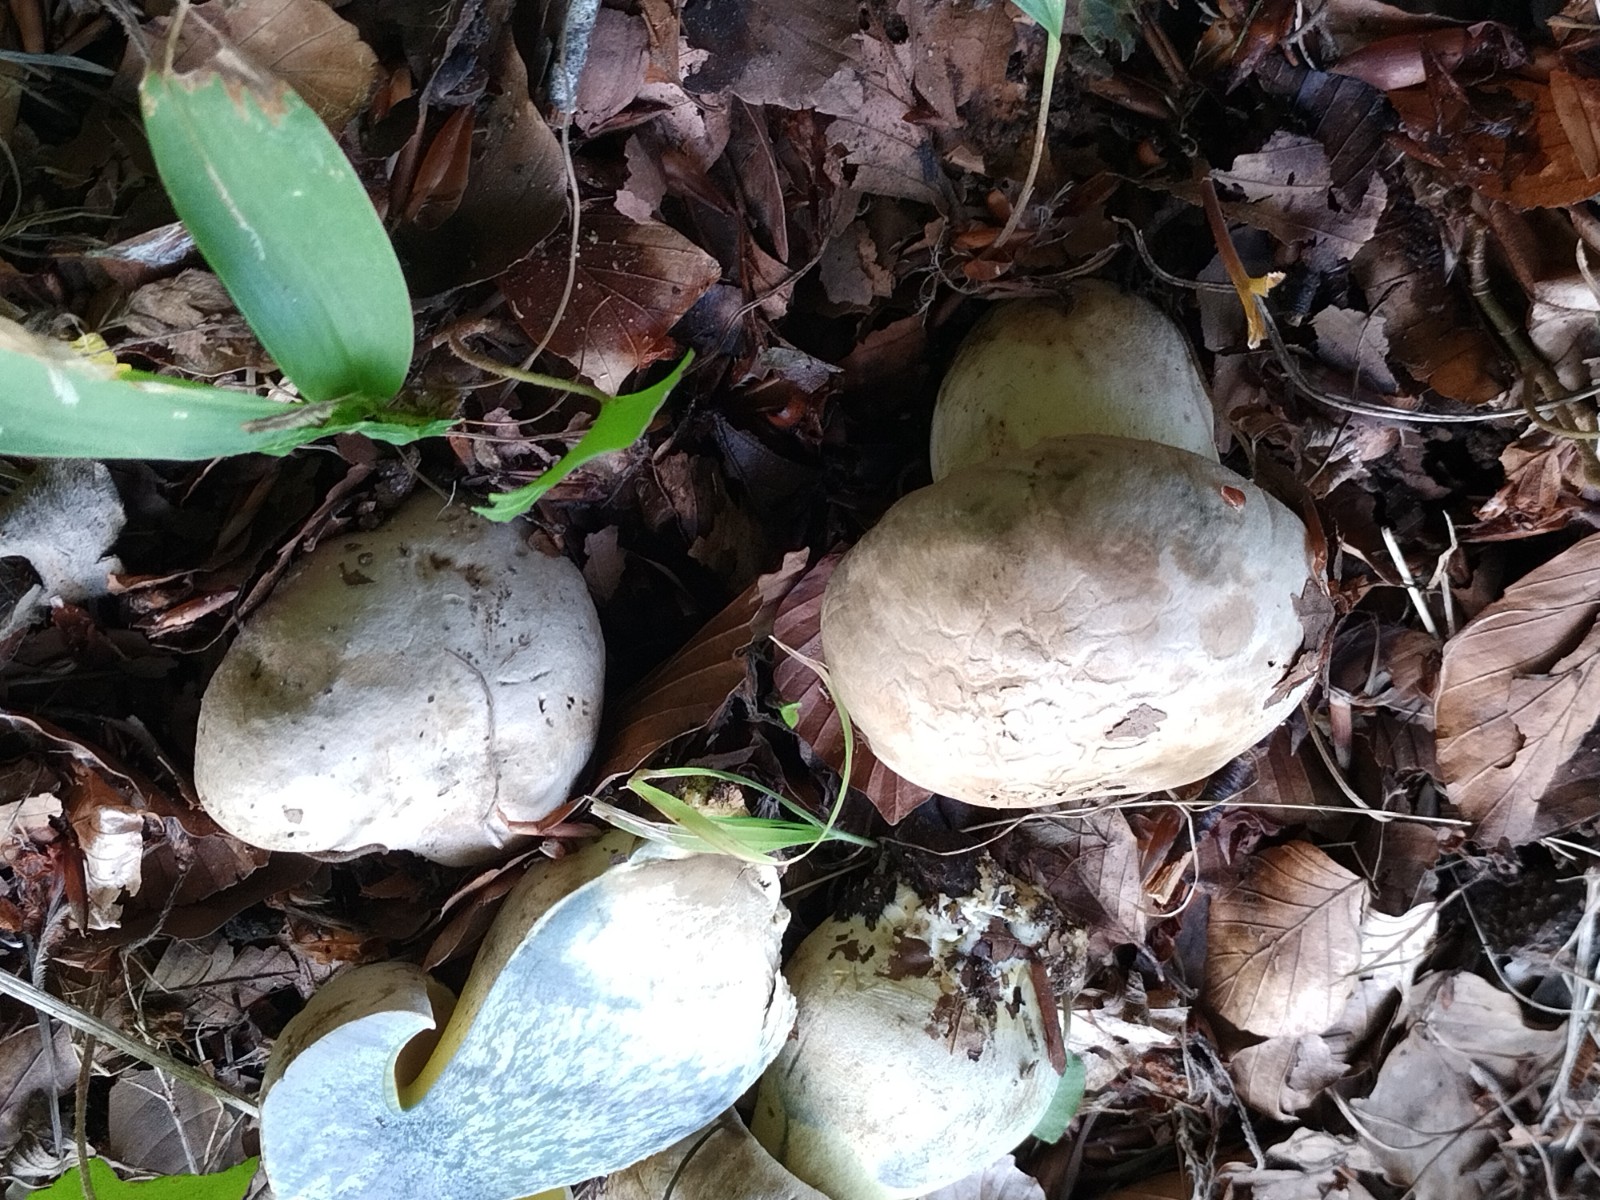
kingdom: Fungi
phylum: Basidiomycota
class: Agaricomycetes
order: Boletales
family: Boletaceae
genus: Caloboletus
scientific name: Caloboletus radicans
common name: rod-rørhat
